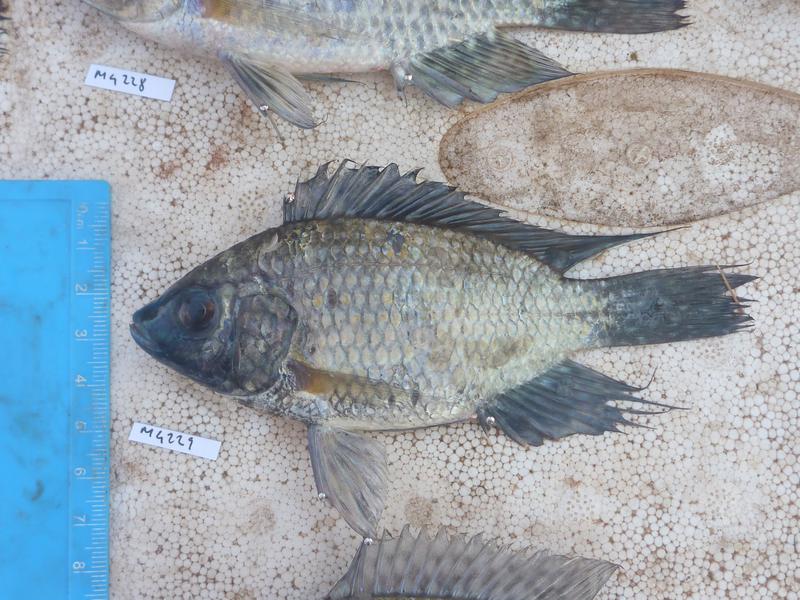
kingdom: Animalia
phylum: Chordata
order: Perciformes
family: Cichlidae
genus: Oreochromis
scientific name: Oreochromis leucostictus
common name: Blue spotted tilapia
